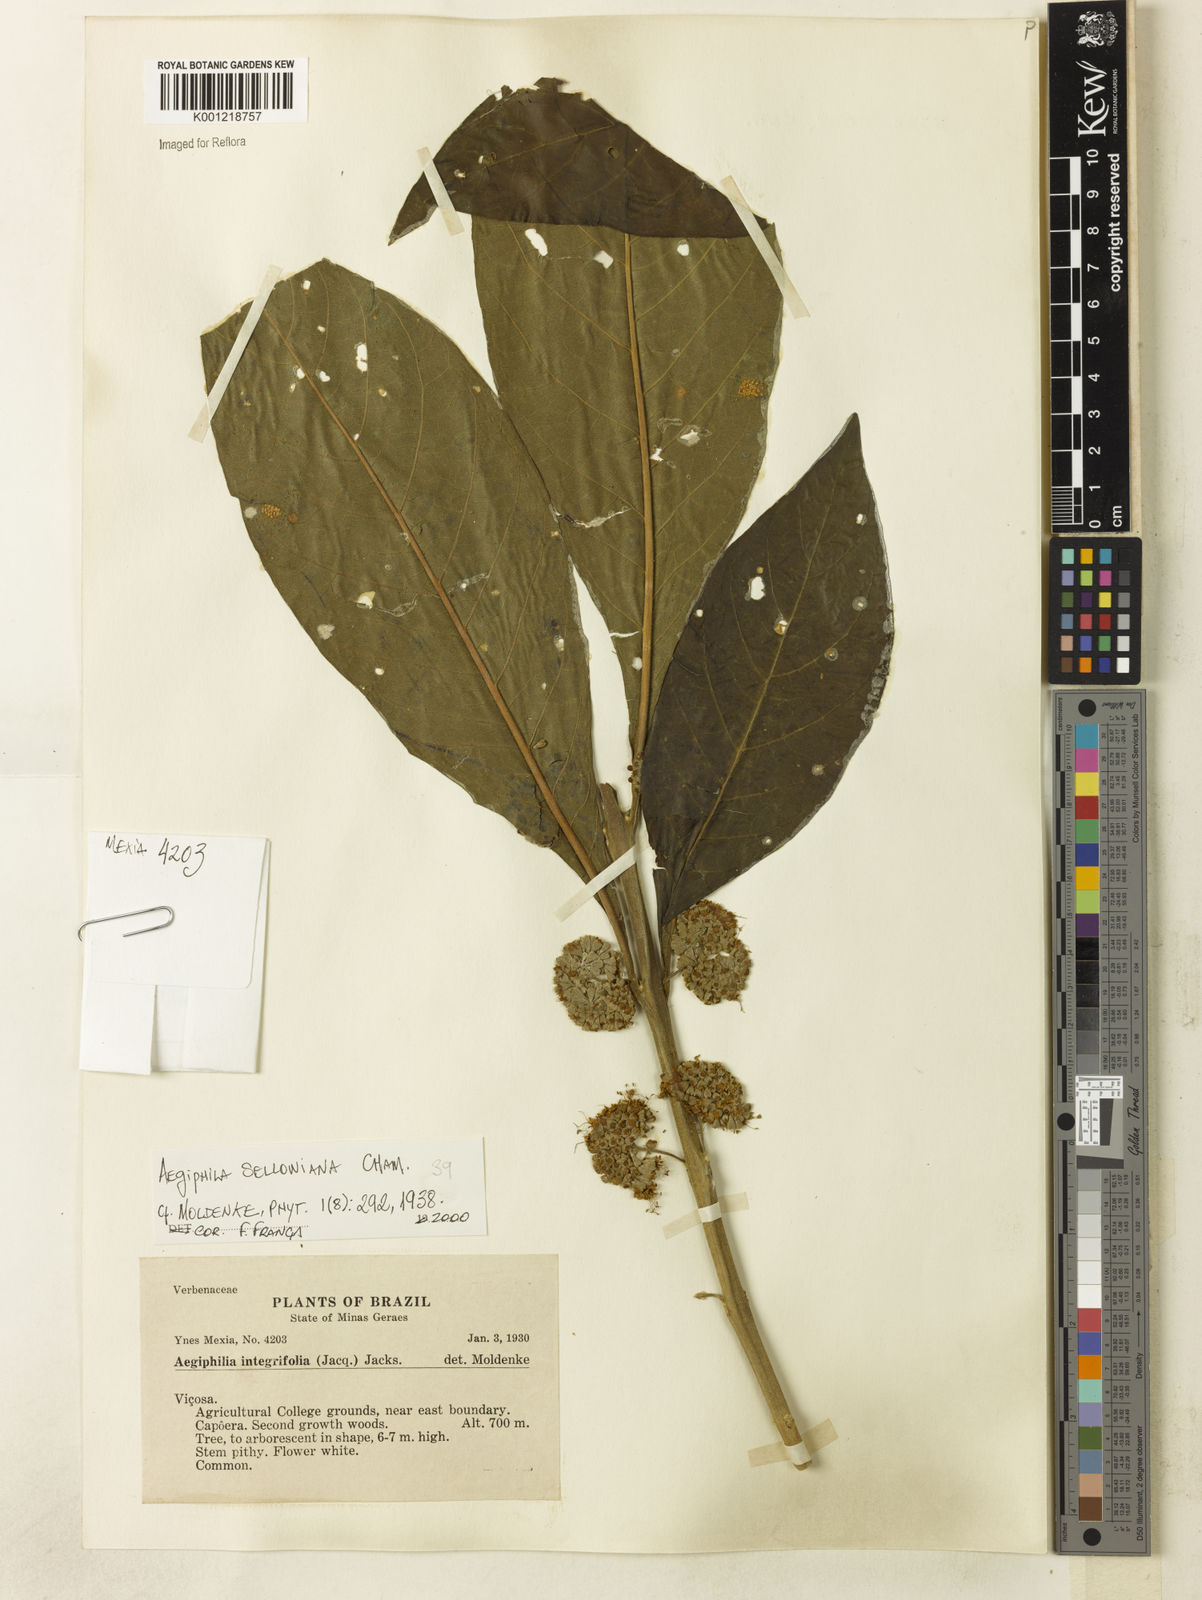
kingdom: Plantae
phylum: Tracheophyta
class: Magnoliopsida
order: Lamiales
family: Lamiaceae
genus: Aegiphila
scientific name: Aegiphila verticillata
